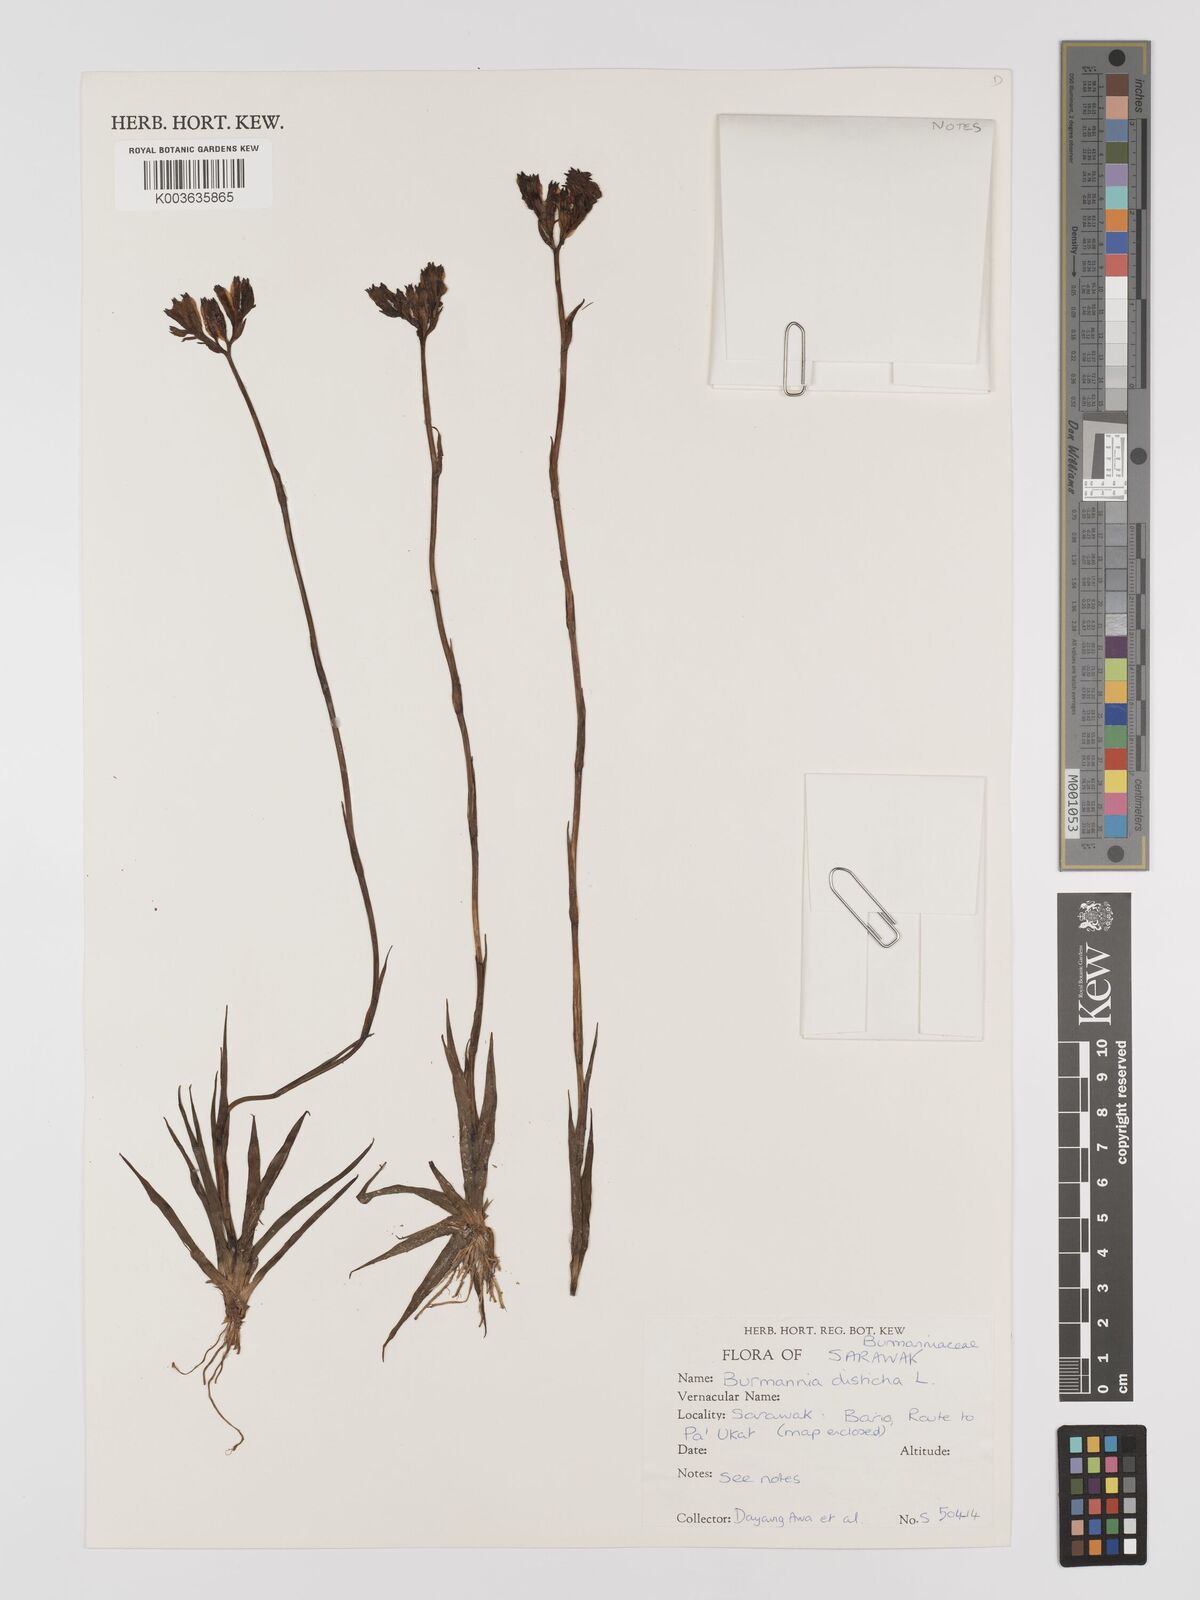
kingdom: Plantae
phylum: Tracheophyta
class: Liliopsida
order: Dioscoreales
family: Burmanniaceae
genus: Burmannia
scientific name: Burmannia disticha
